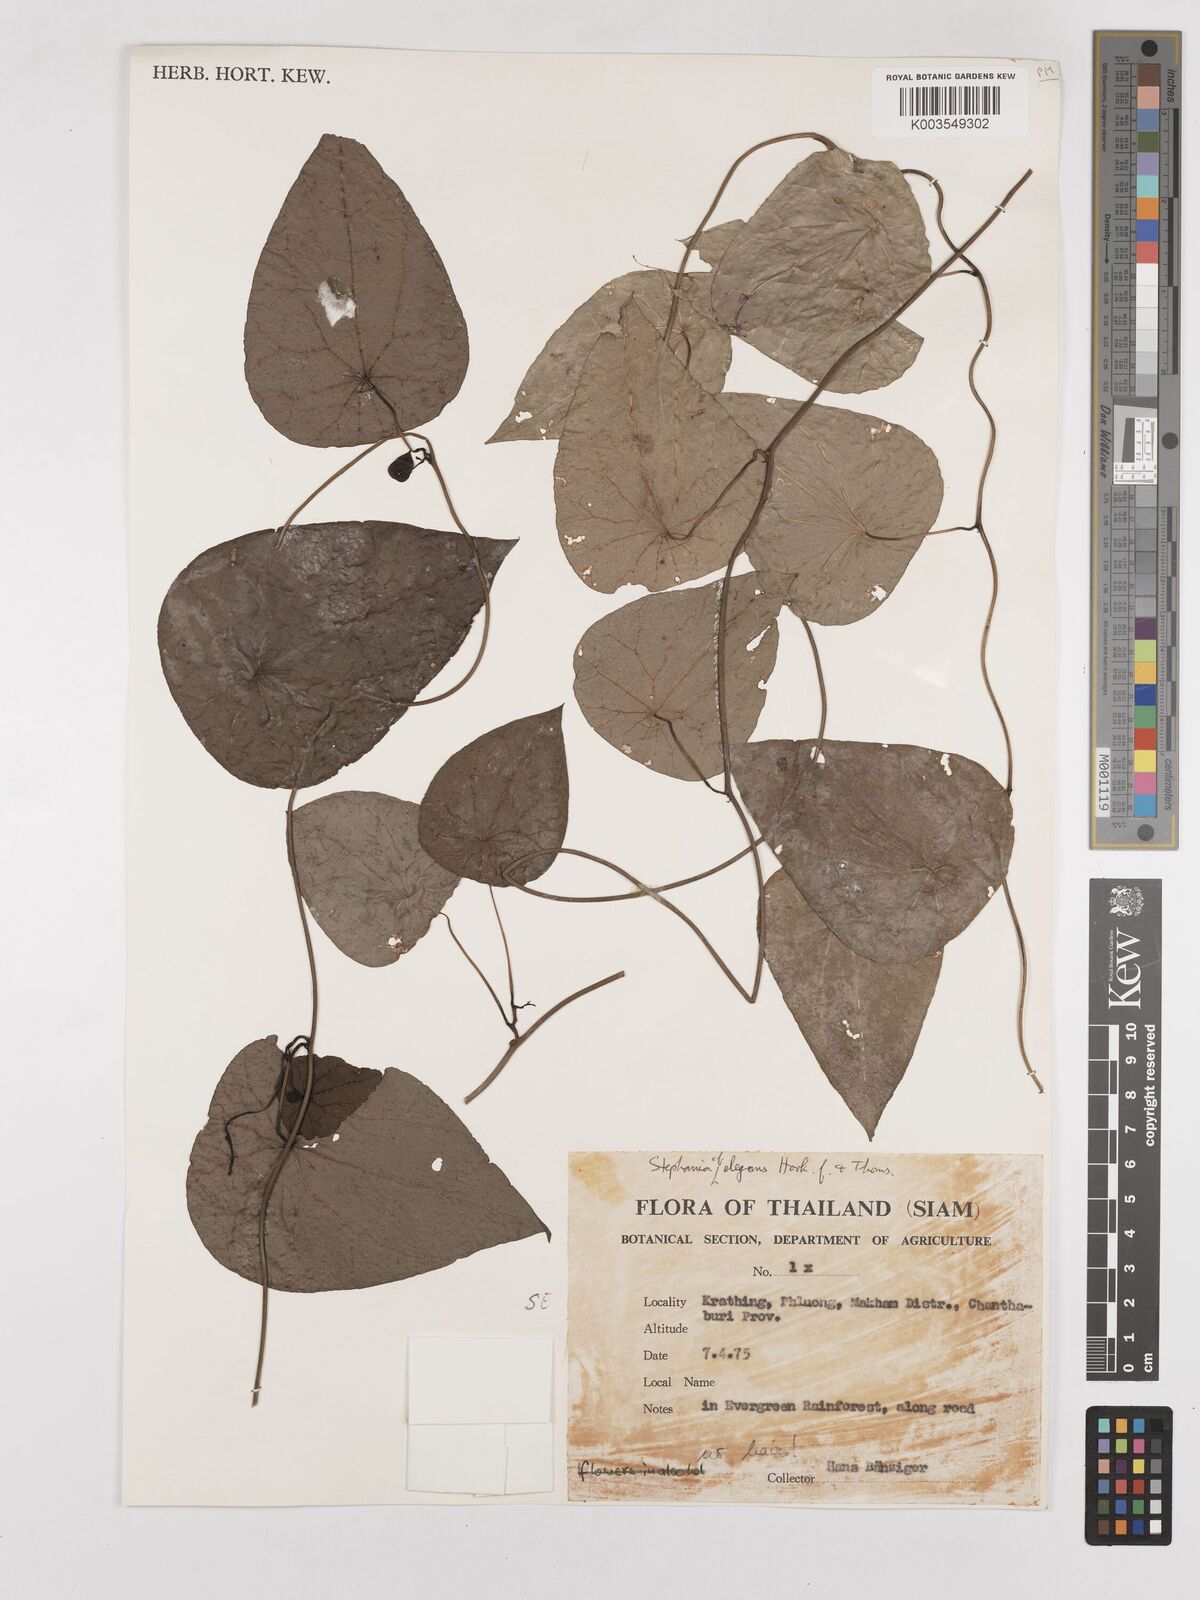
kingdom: Plantae
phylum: Tracheophyta
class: Magnoliopsida
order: Ranunculales
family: Menispermaceae
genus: Stephania
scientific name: Stephania elegans
